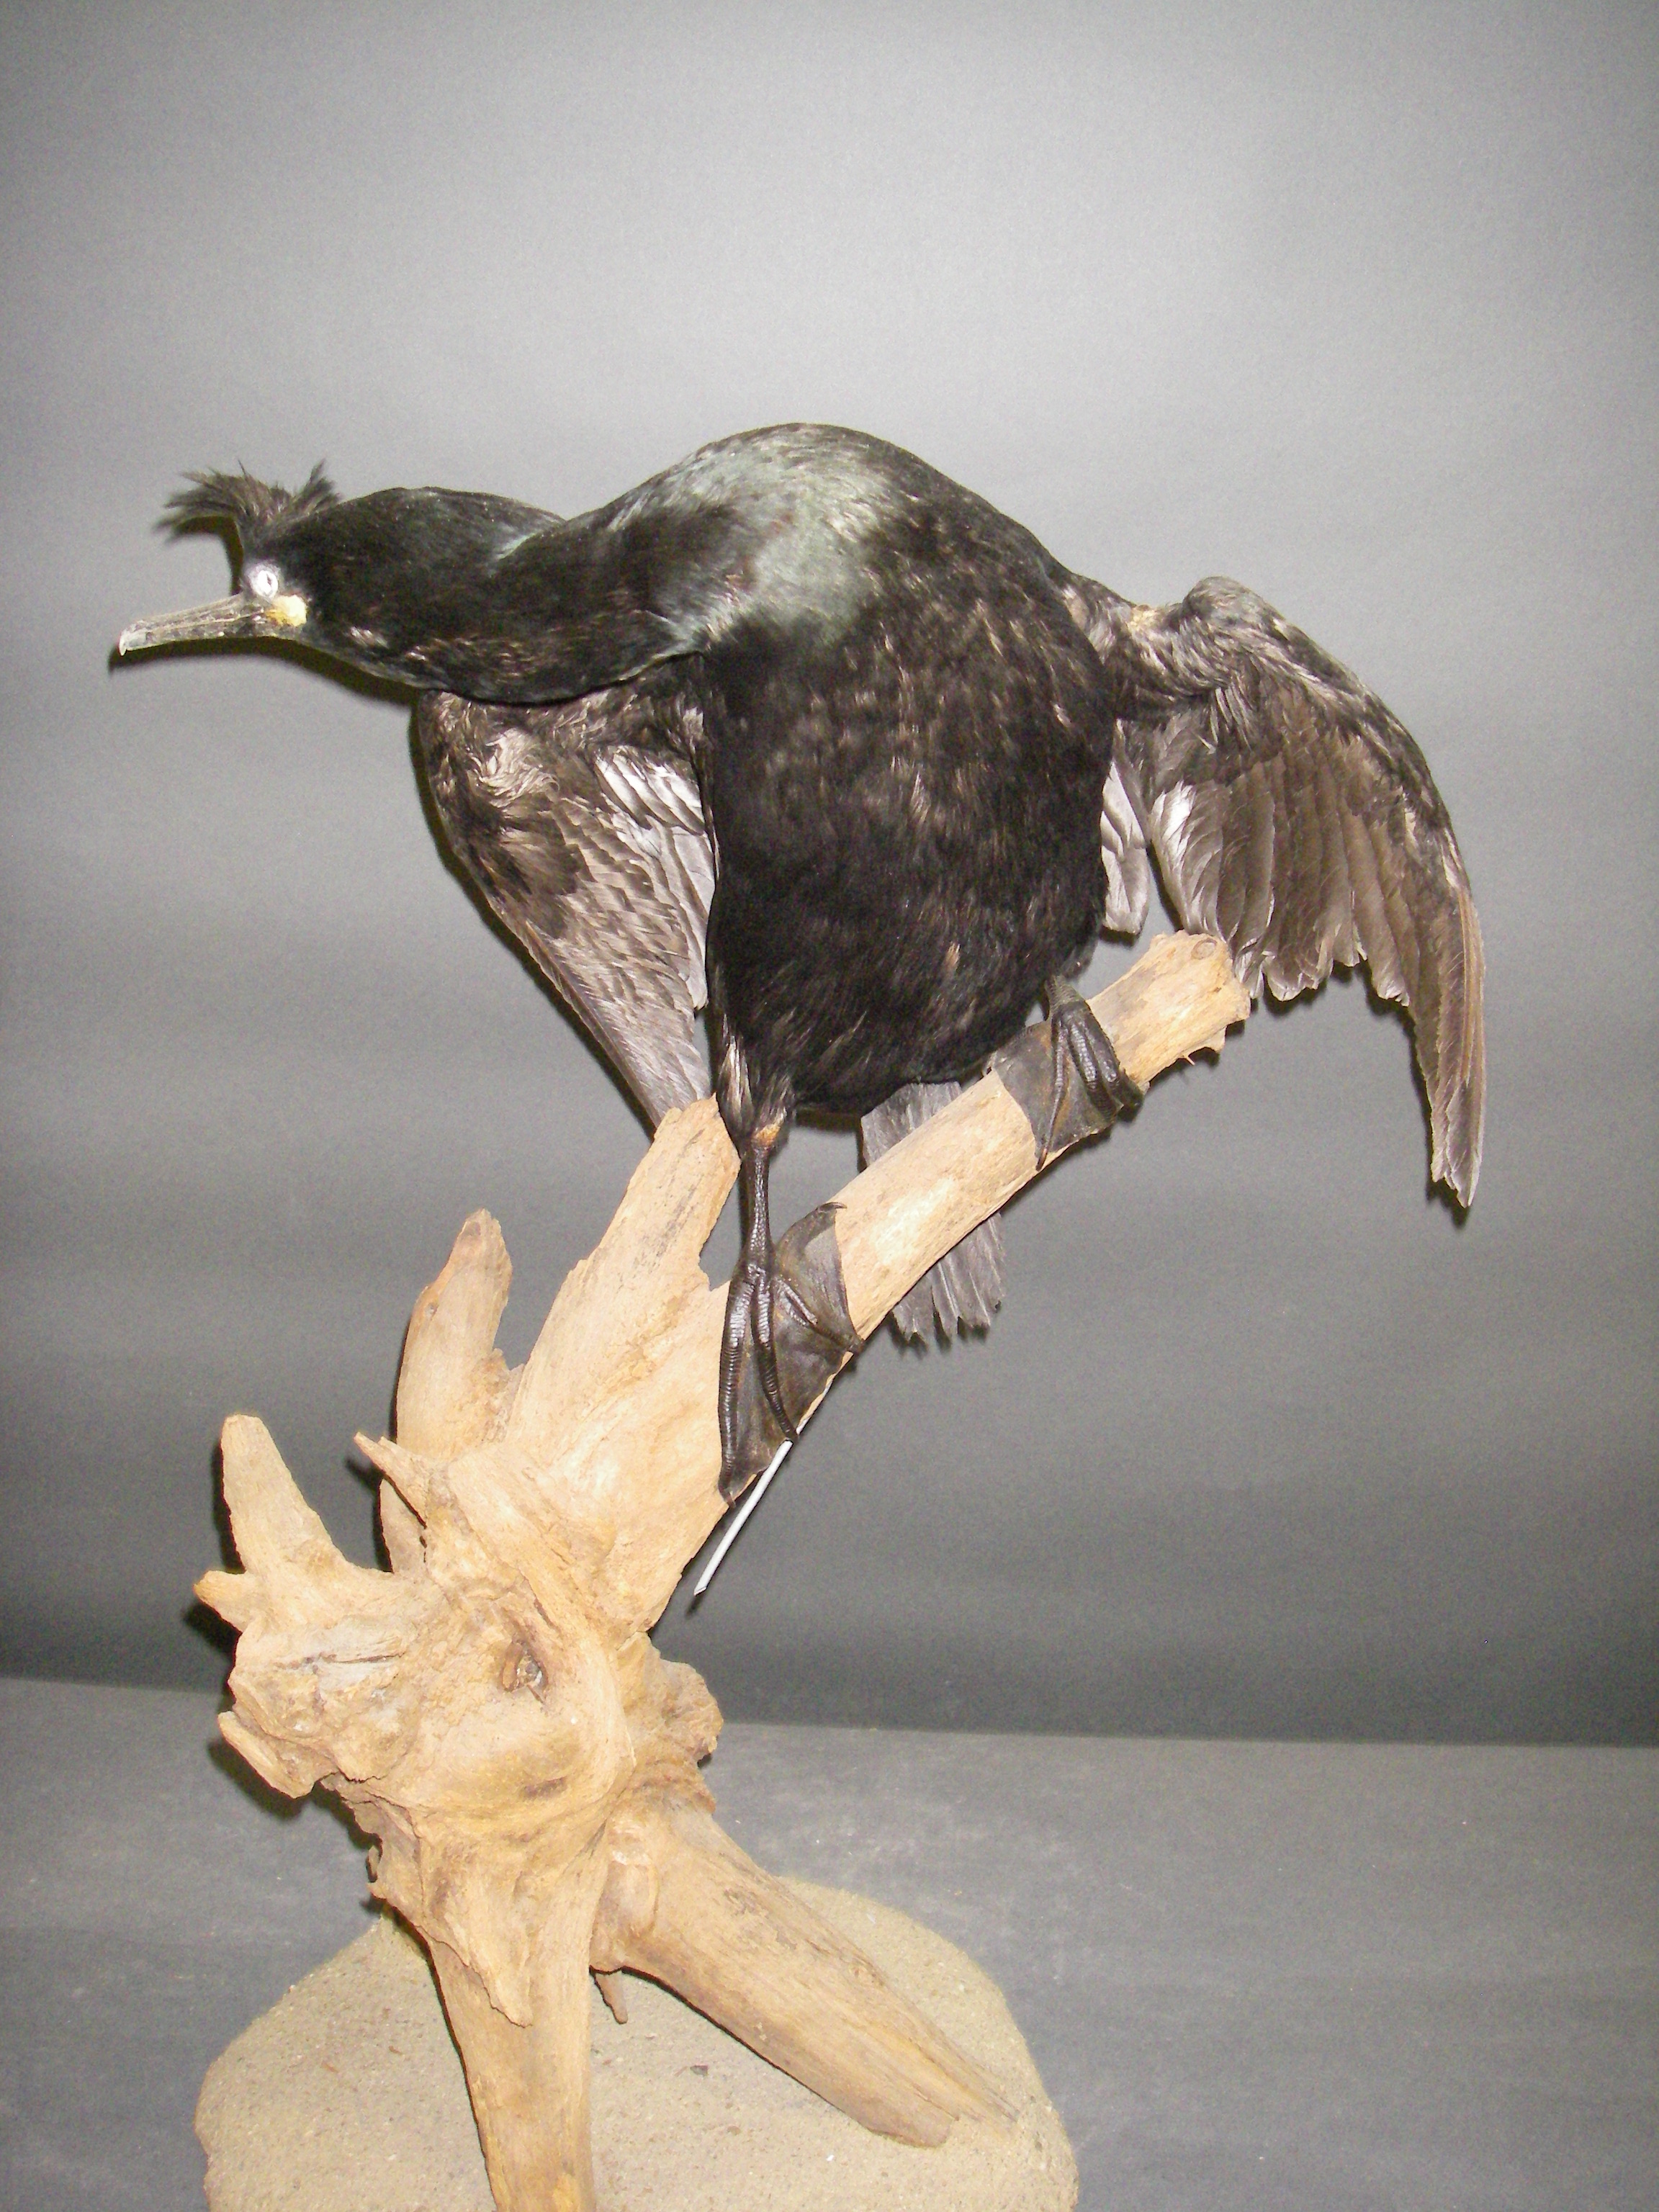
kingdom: Animalia
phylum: Chordata
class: Aves
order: Suliformes
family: Phalacrocoracidae
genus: Phalacrocorax
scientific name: Phalacrocorax aristotelis
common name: European shag
